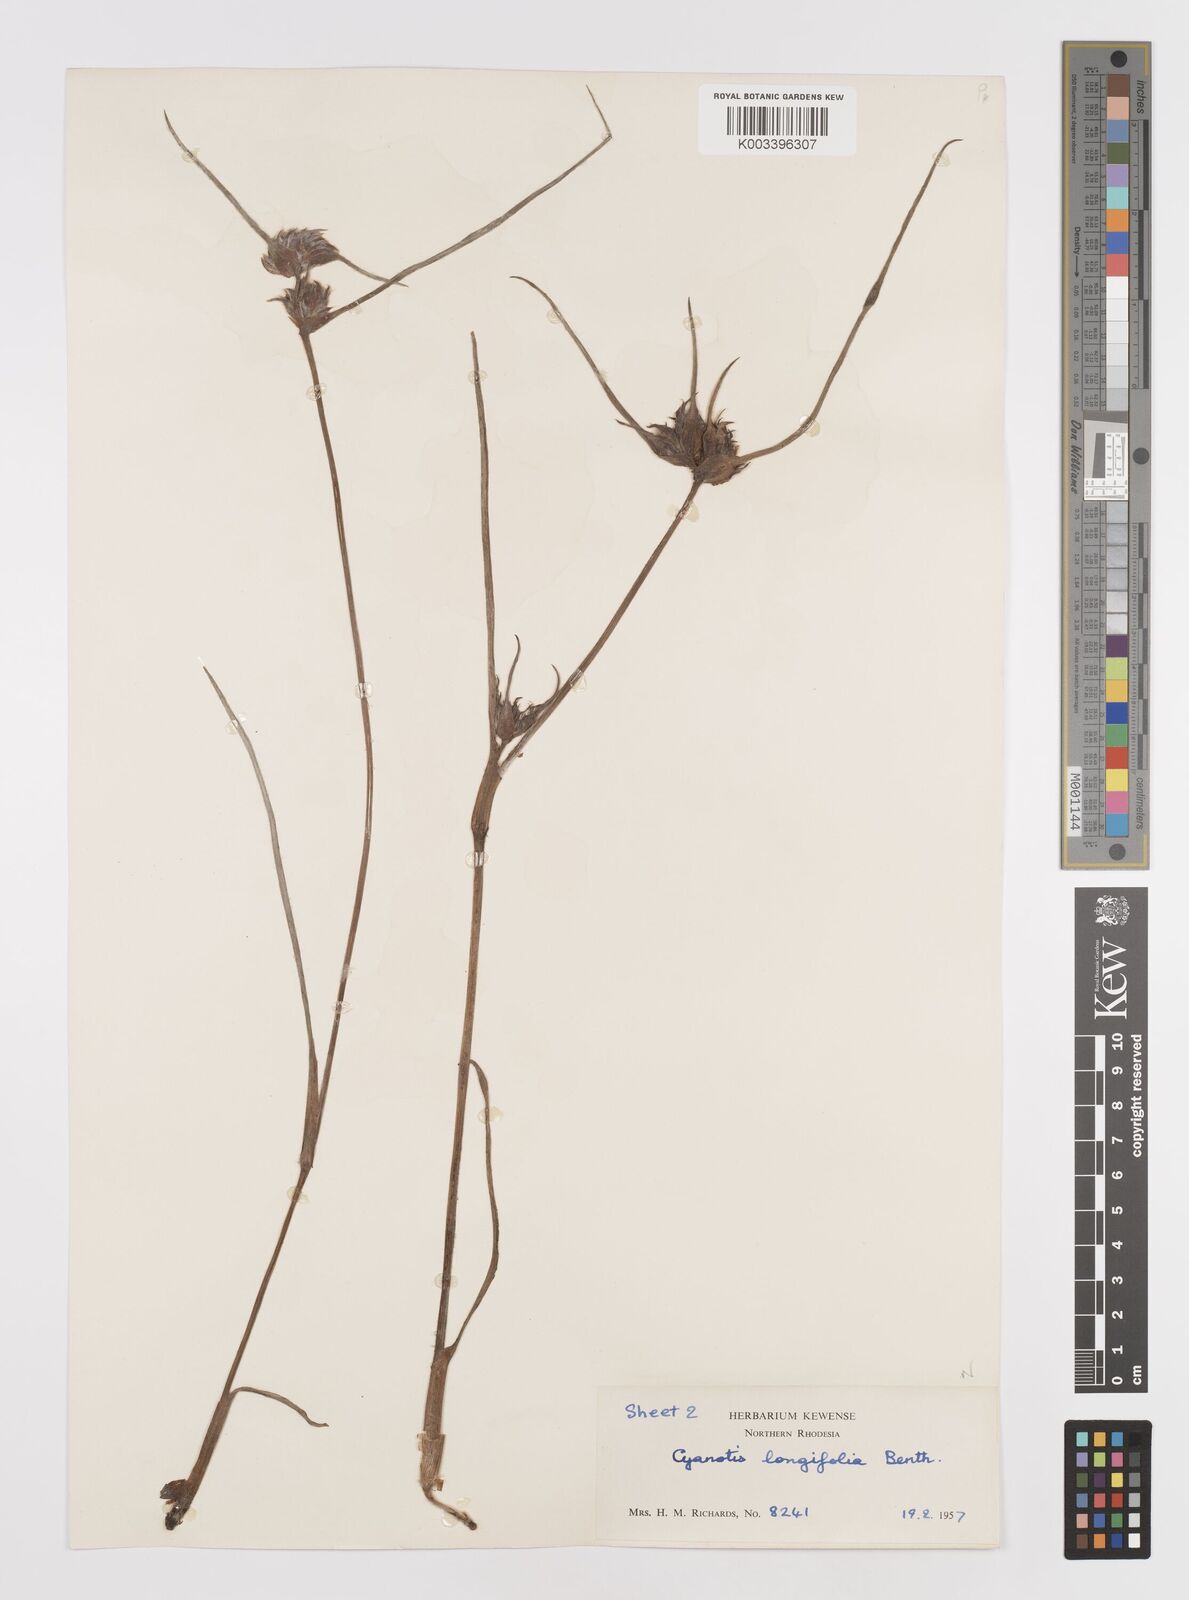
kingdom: Plantae
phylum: Tracheophyta
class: Liliopsida
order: Commelinales
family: Commelinaceae
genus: Cyanotis
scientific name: Cyanotis longifolia
